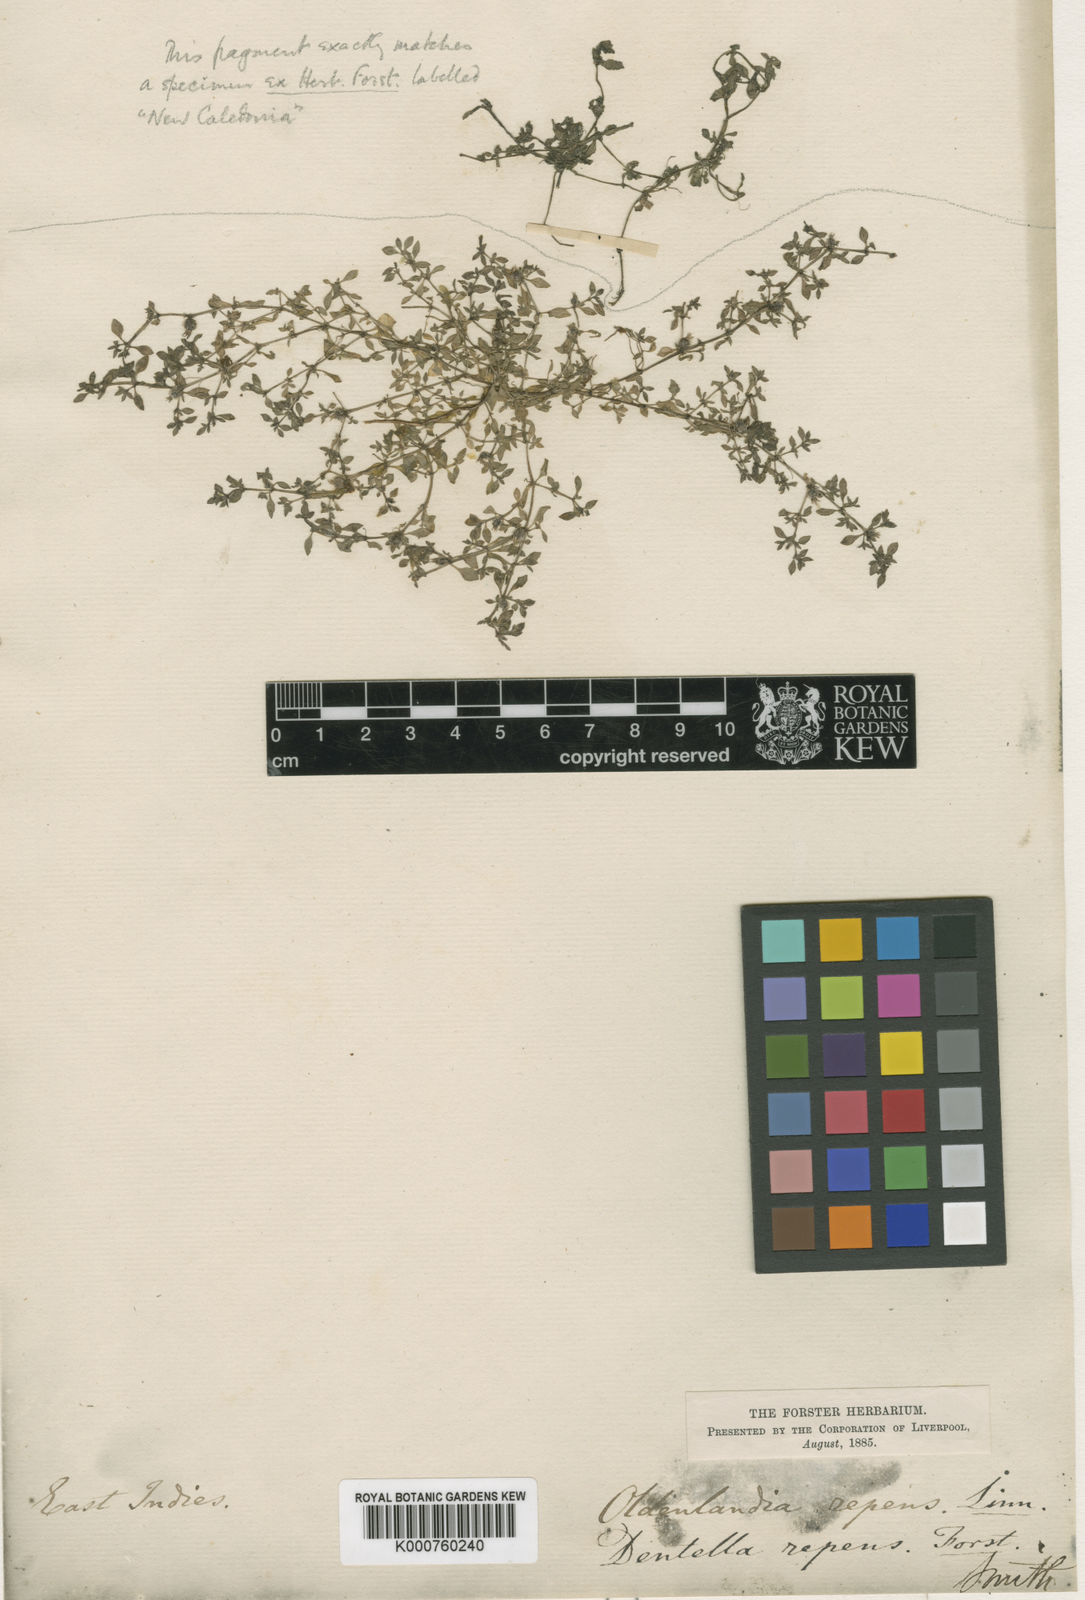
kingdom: Plantae
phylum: Tracheophyta
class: Magnoliopsida
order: Gentianales
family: Rubiaceae
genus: Dentella
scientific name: Dentella repens
